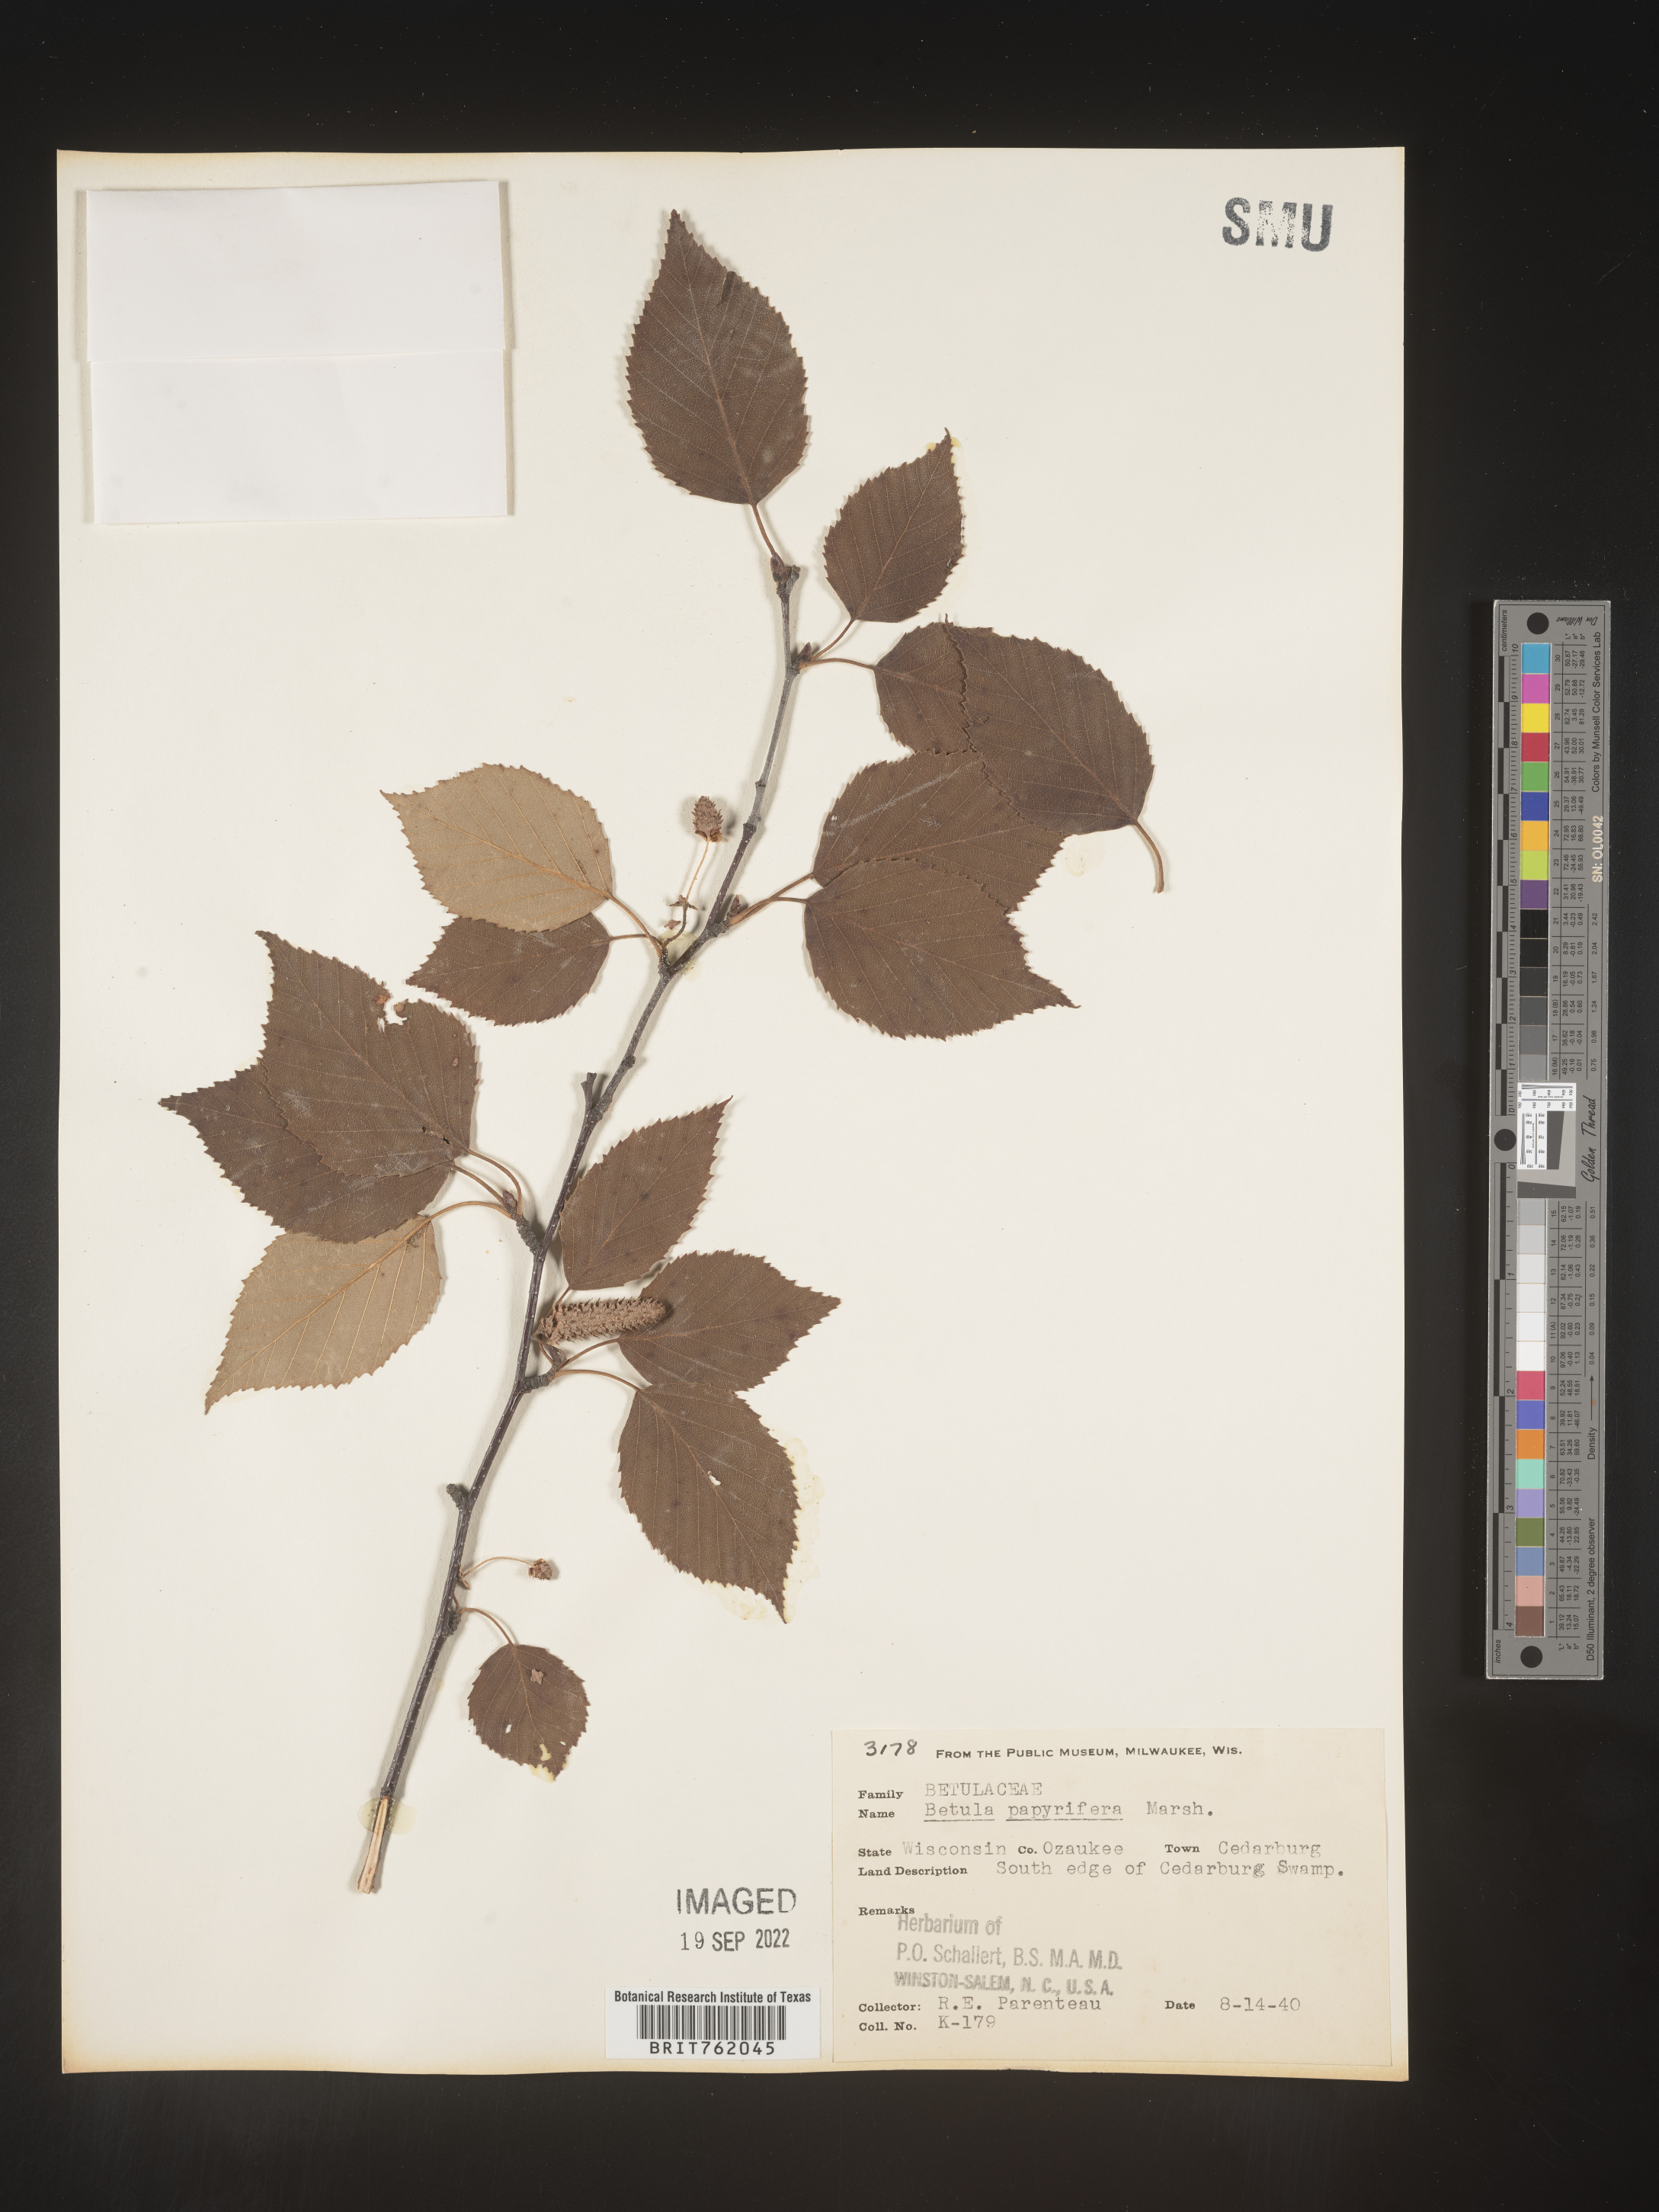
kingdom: Plantae
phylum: Tracheophyta
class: Magnoliopsida
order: Fagales
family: Betulaceae
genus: Betula
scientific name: Betula papyrifera
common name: Paper birch
